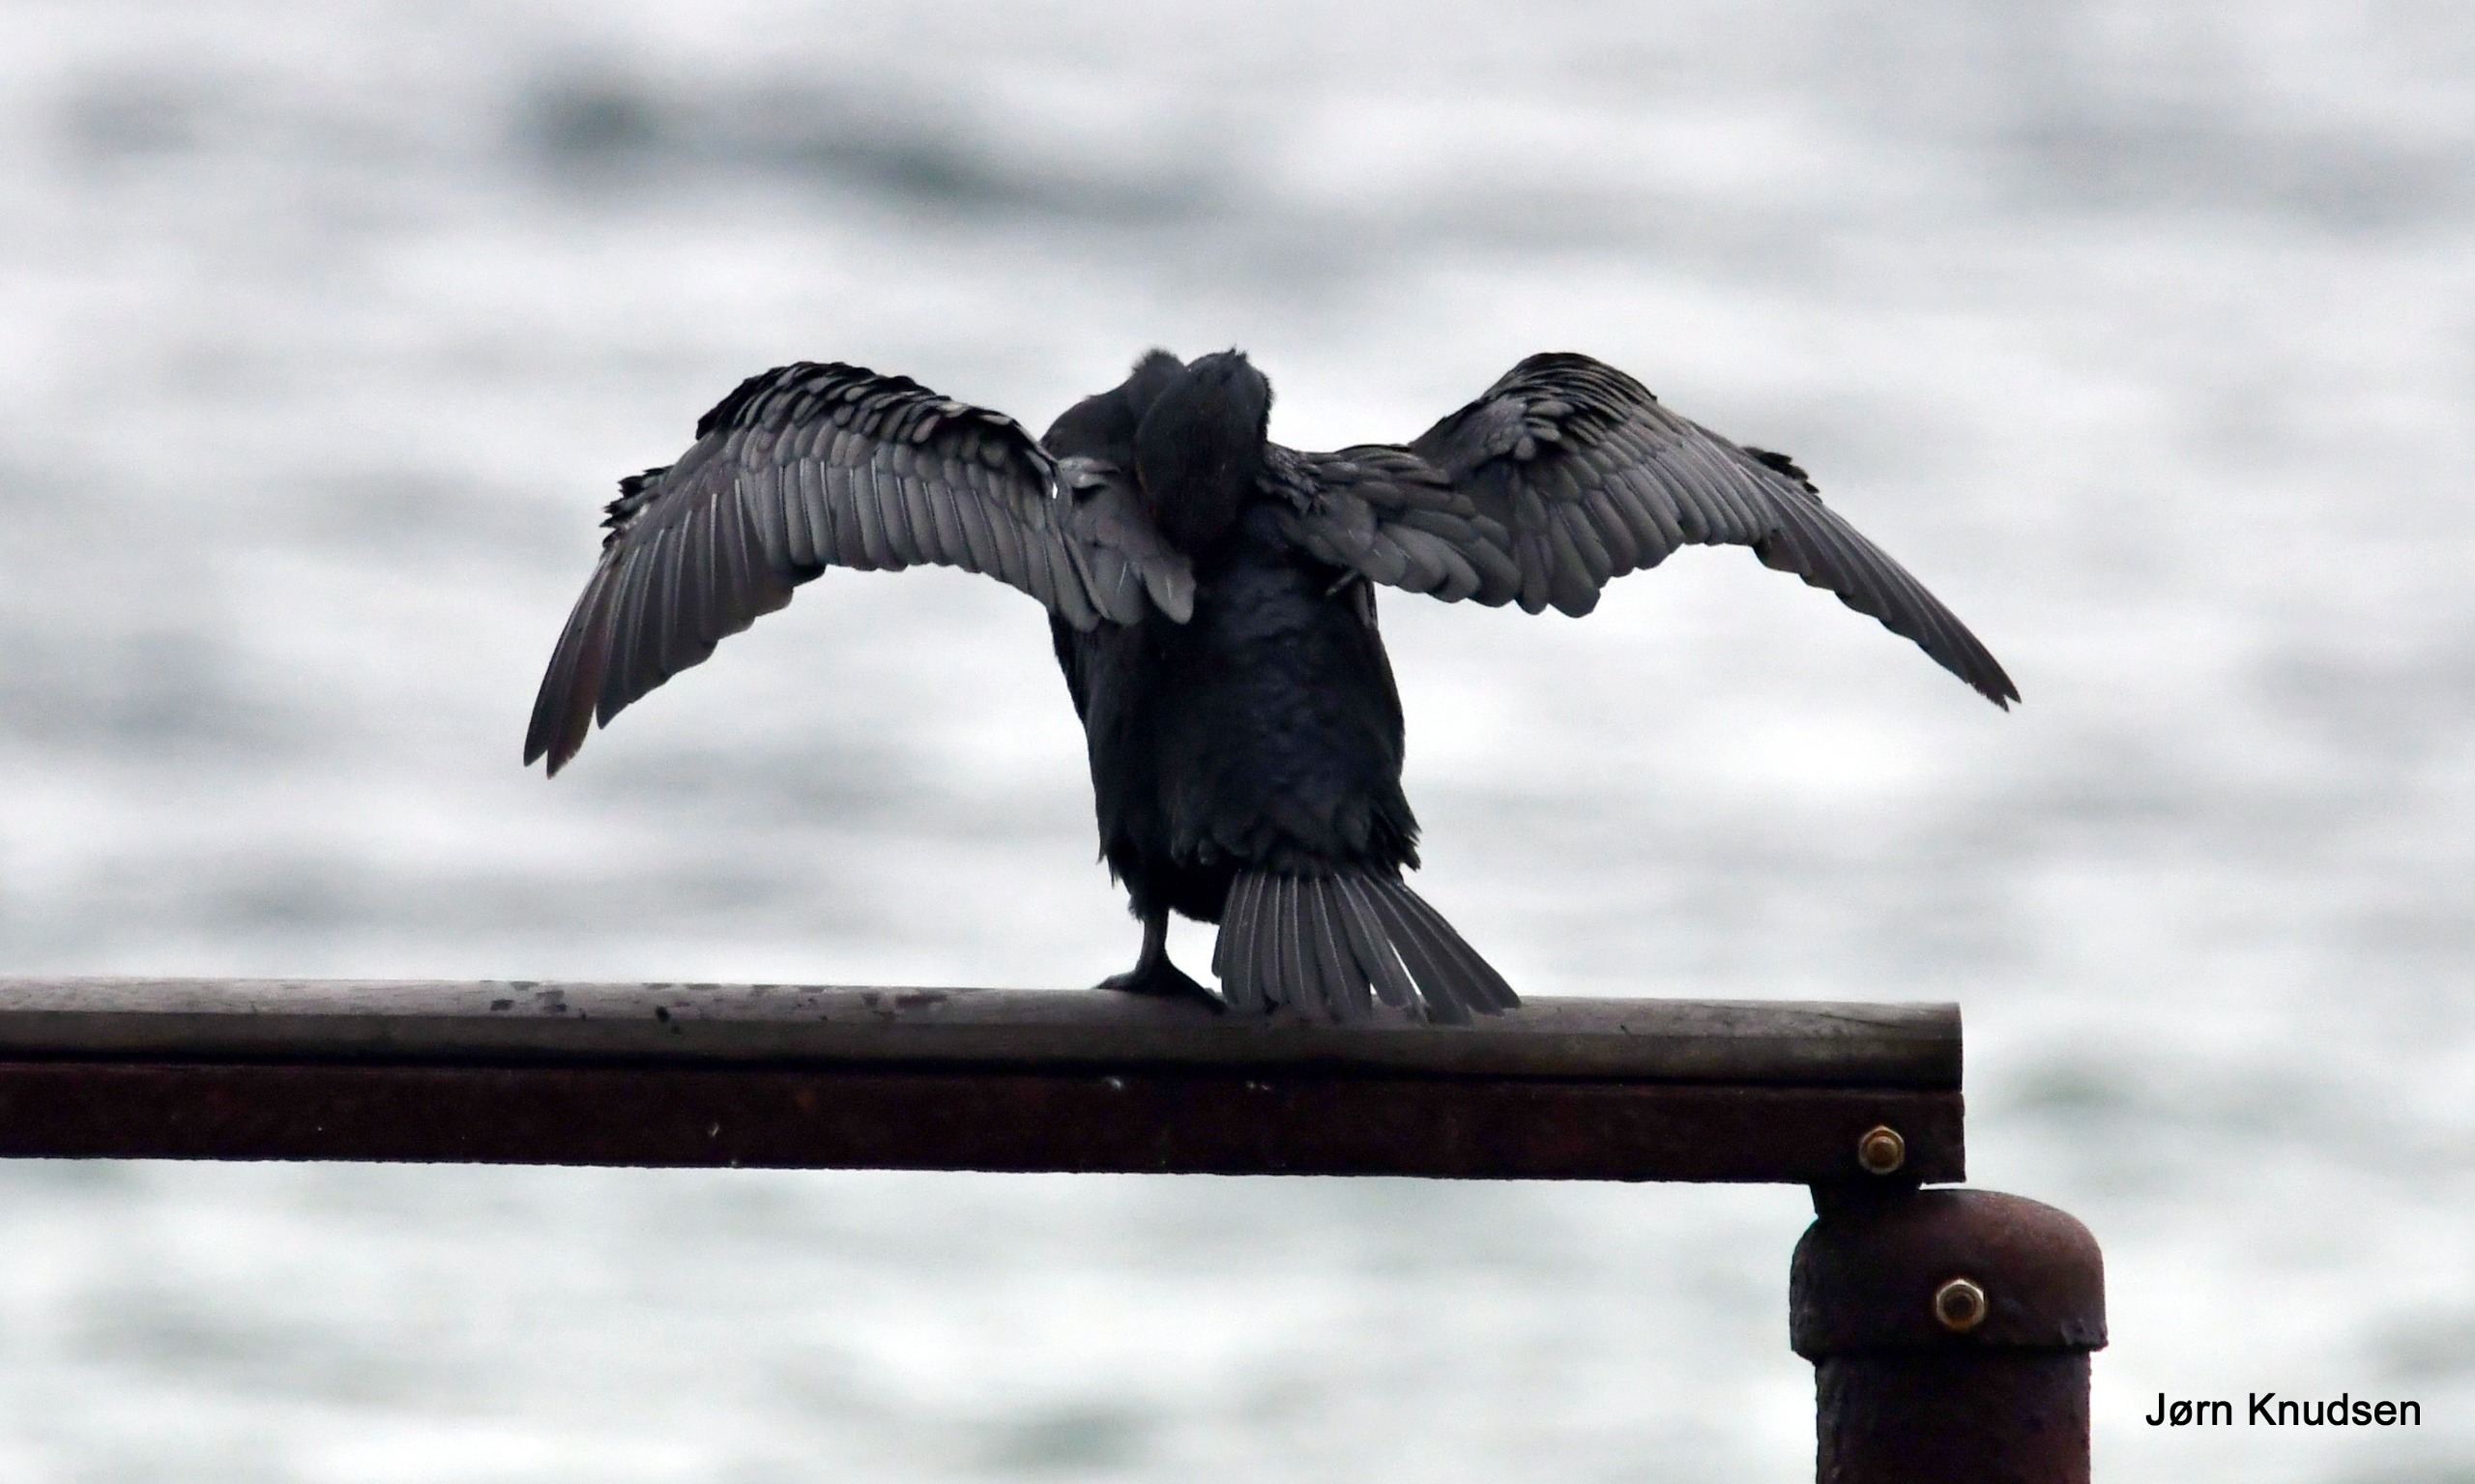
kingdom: Animalia
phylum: Chordata
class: Aves
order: Suliformes
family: Phalacrocoracidae
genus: Phalacrocorax
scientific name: Phalacrocorax carbo
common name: Skarv
